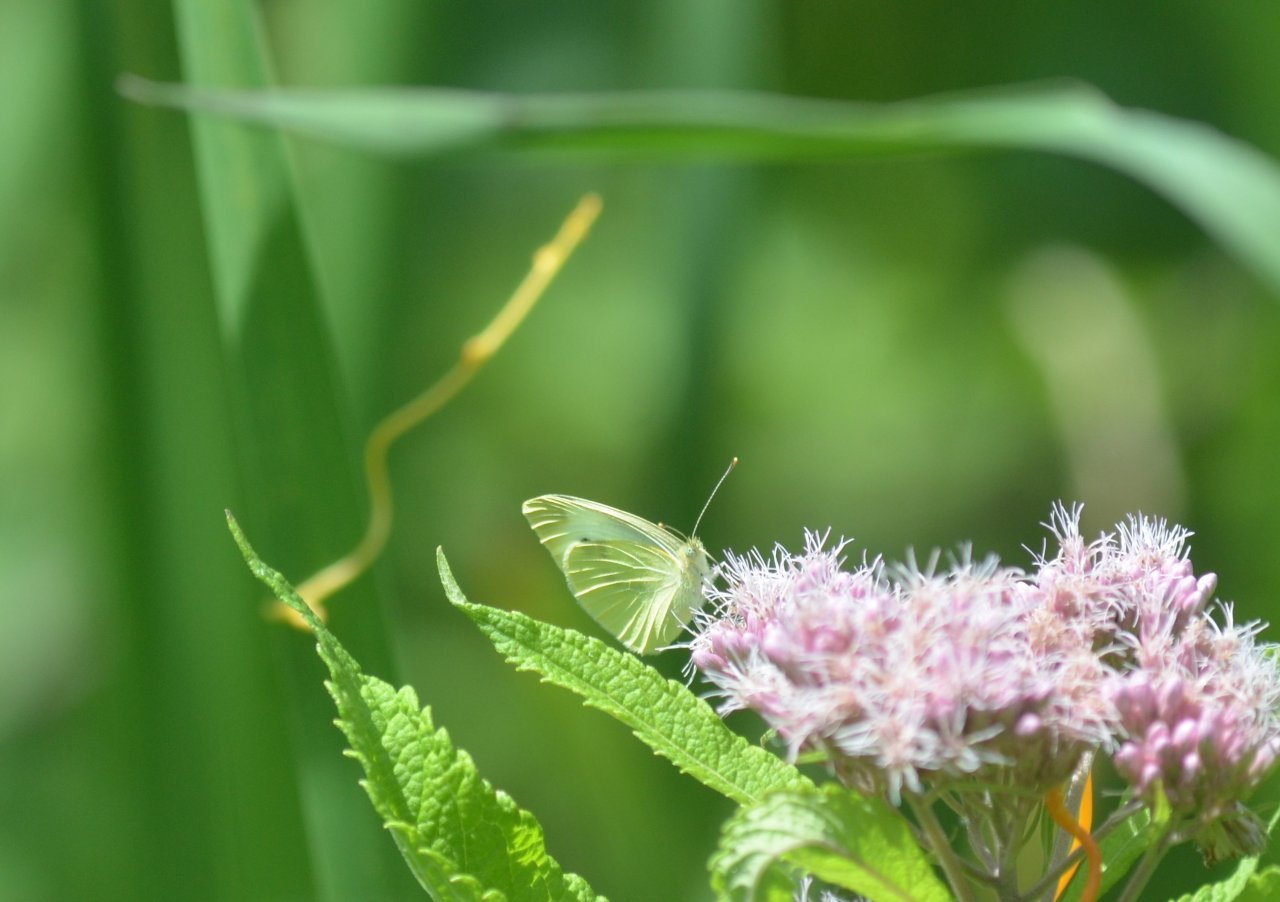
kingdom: Animalia
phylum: Arthropoda
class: Insecta
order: Lepidoptera
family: Pieridae
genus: Pieris
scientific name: Pieris rapae
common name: Cabbage White
